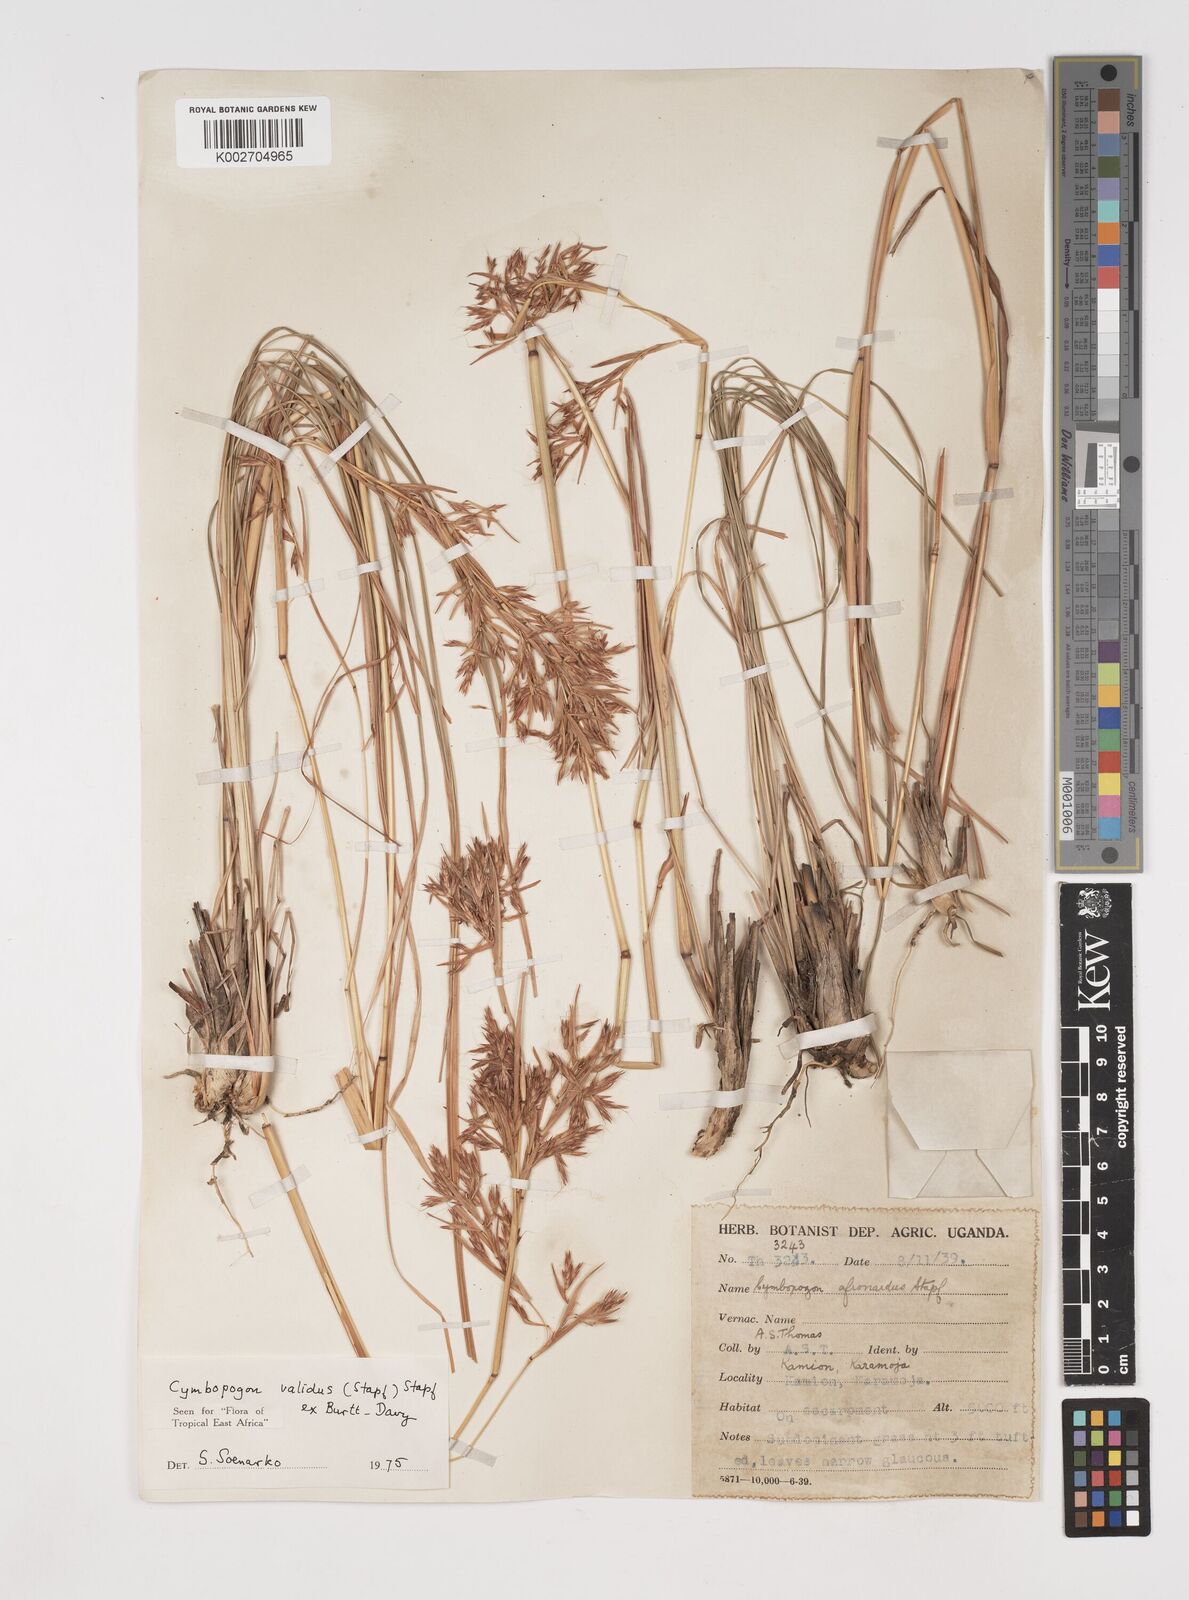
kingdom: Plantae
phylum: Tracheophyta
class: Liliopsida
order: Poales
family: Poaceae
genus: Cymbopogon
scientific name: Cymbopogon nardus
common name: Giant turpentine grass
